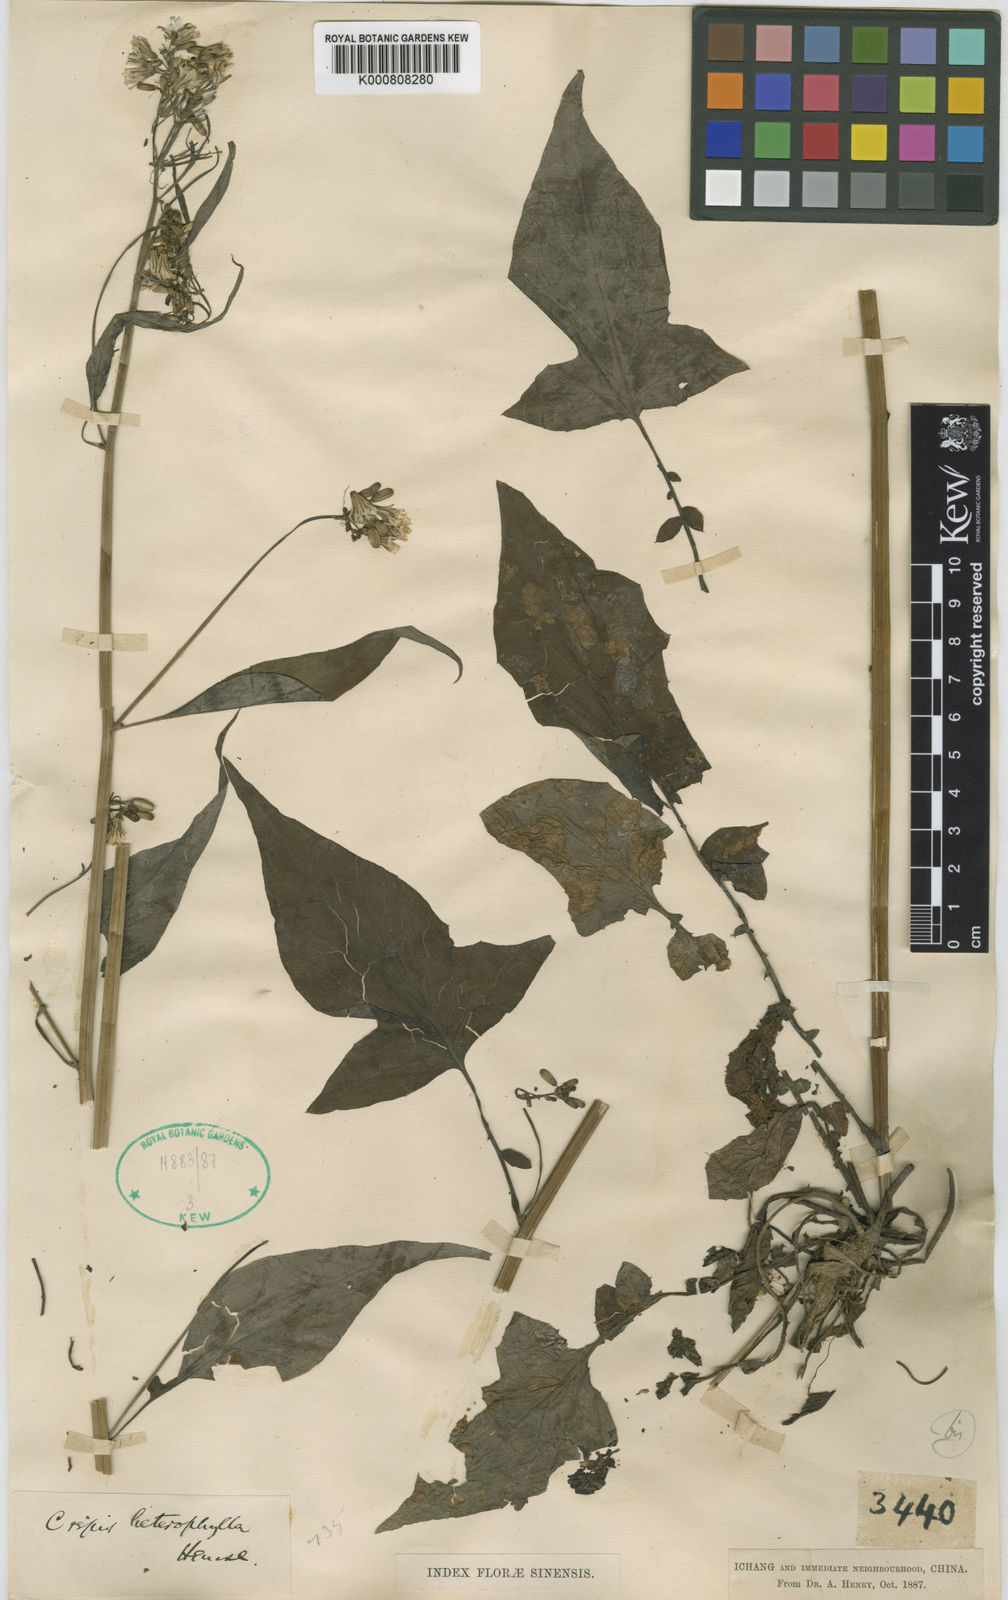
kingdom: Plantae
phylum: Tracheophyta
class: Magnoliopsida
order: Asterales
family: Asteraceae
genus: Youngia
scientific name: Youngia heterophylla
